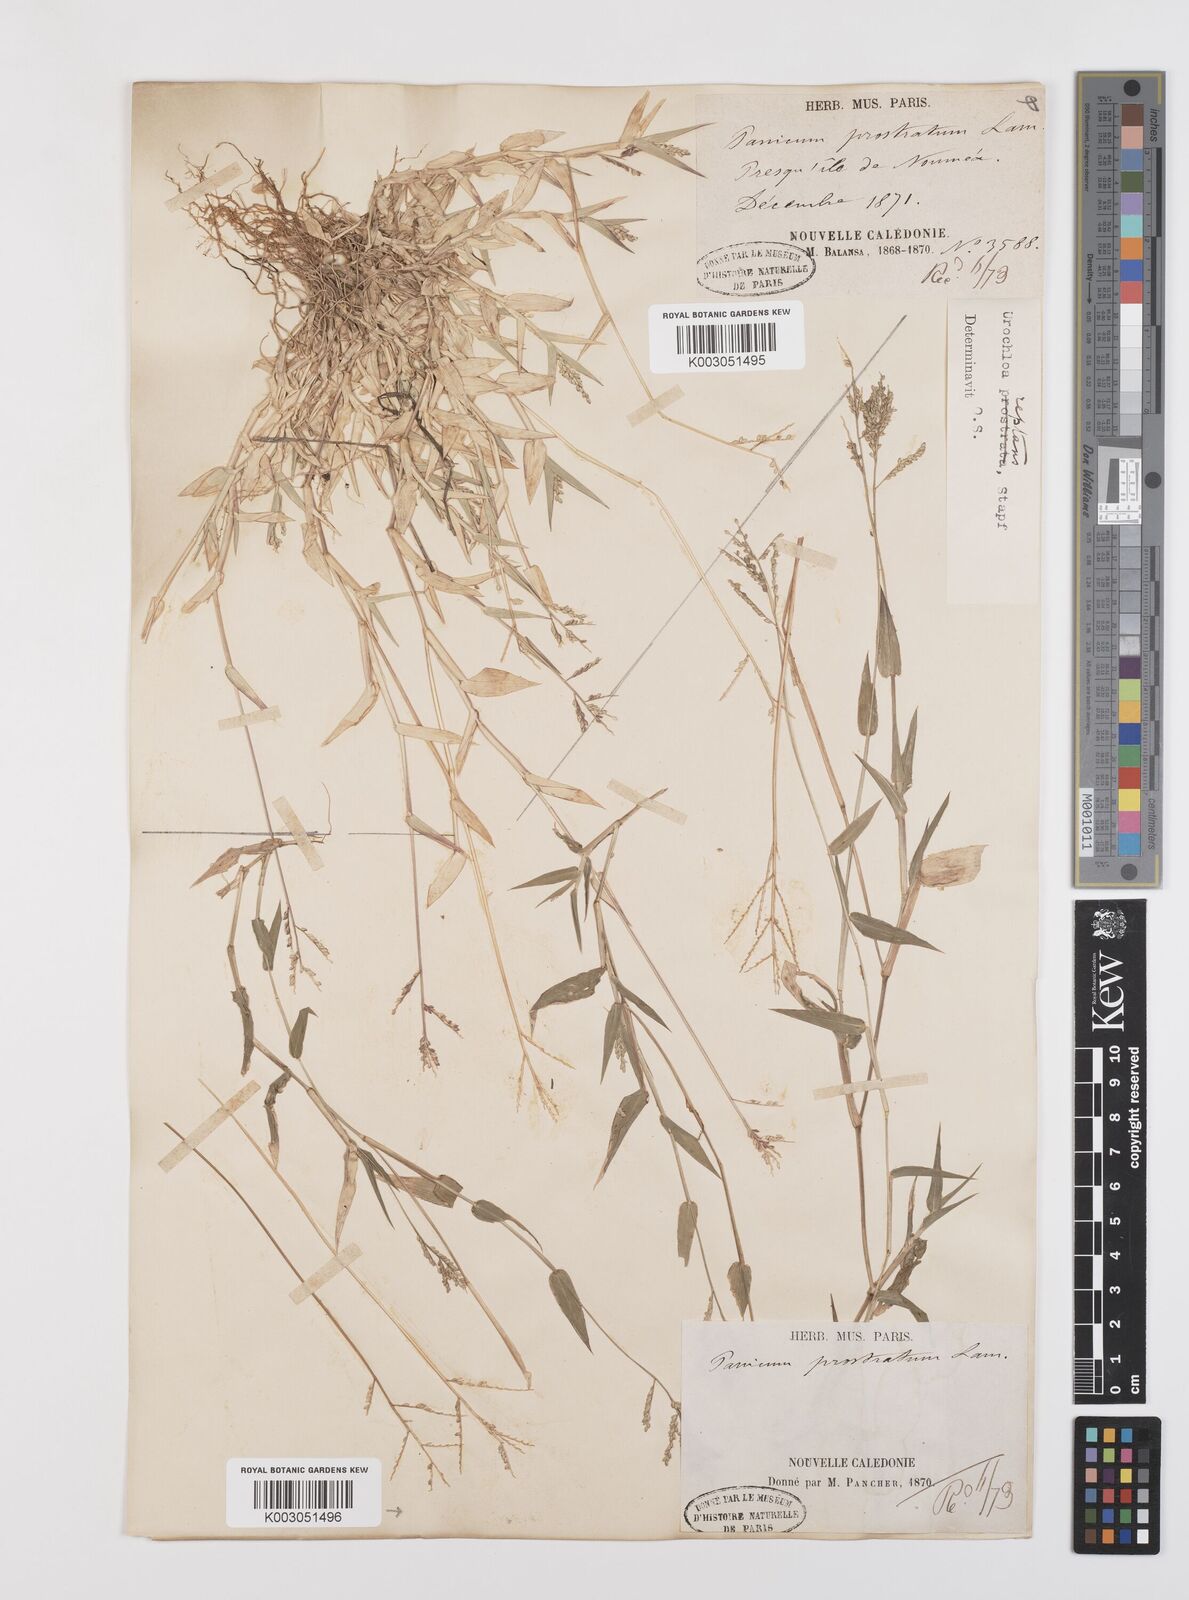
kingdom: Plantae
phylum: Tracheophyta
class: Liliopsida
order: Poales
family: Poaceae
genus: Urochloa
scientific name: Urochloa reptans
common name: Sprawling signalgrass
